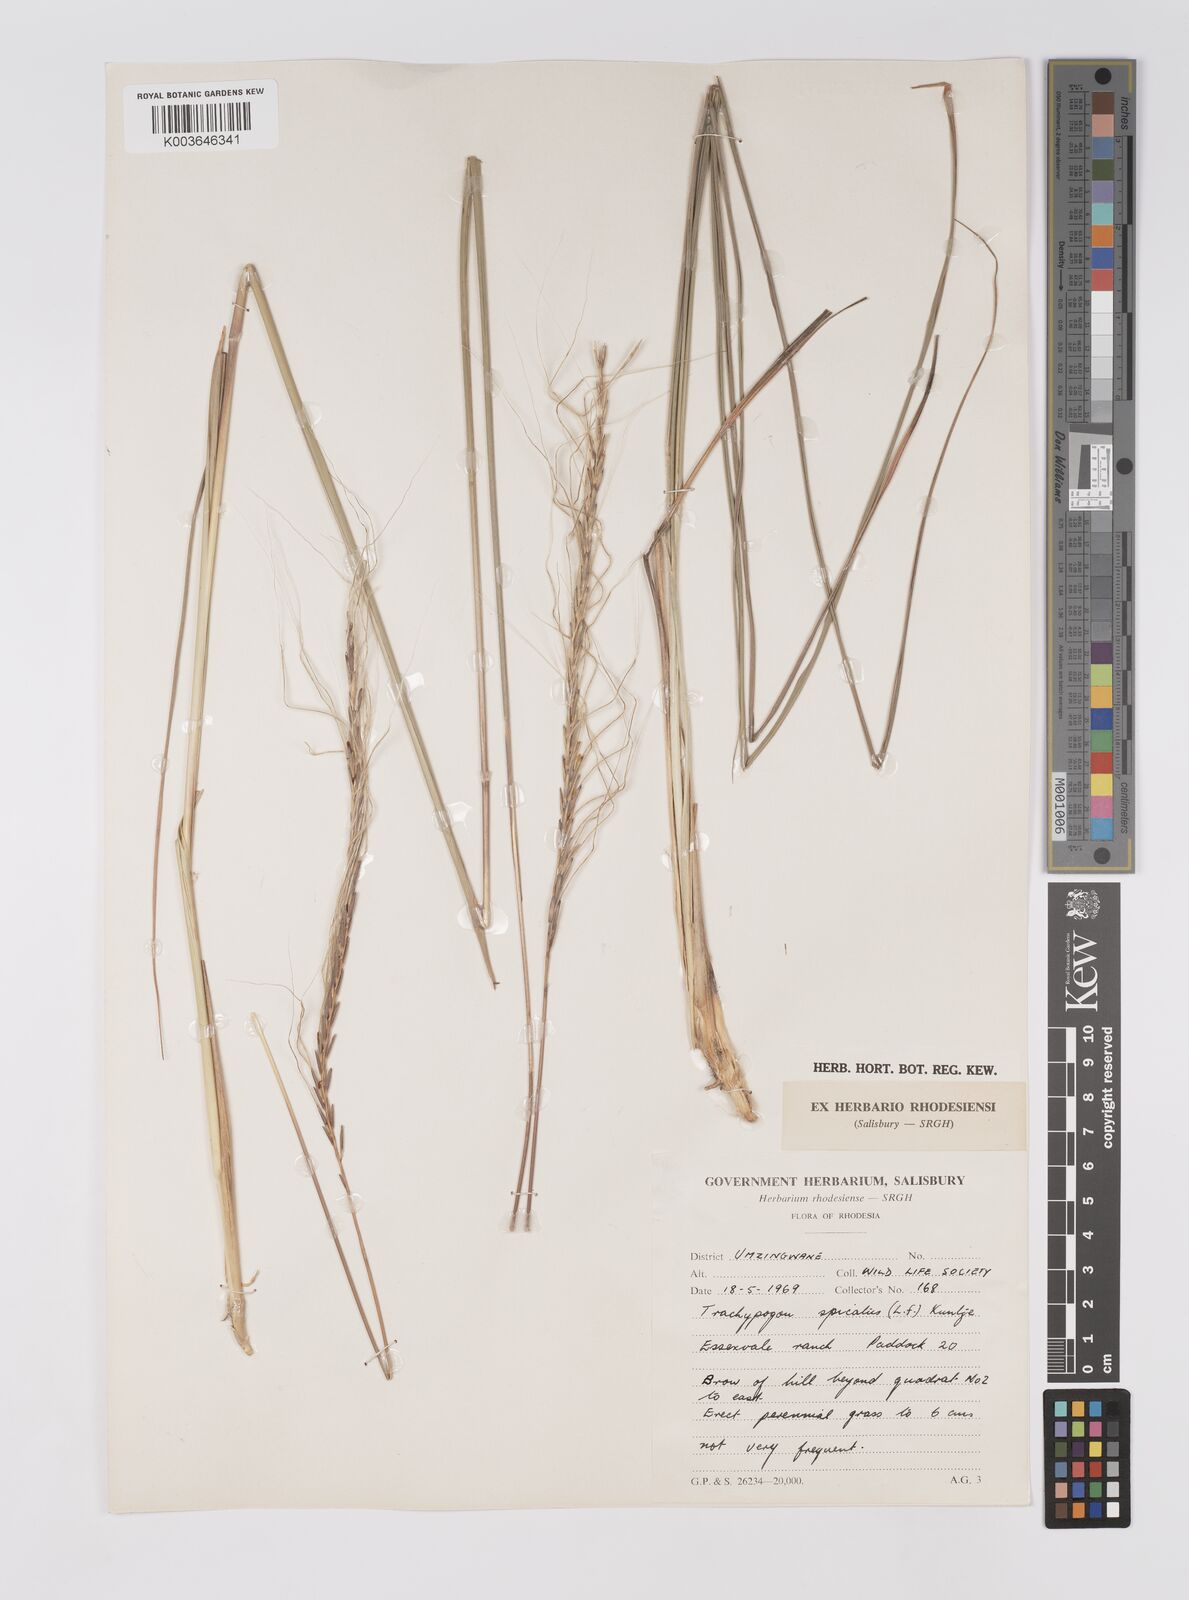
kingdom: Plantae
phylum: Tracheophyta
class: Liliopsida
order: Poales
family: Poaceae
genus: Trachypogon
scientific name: Trachypogon spicatus
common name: Crinkle-awn
